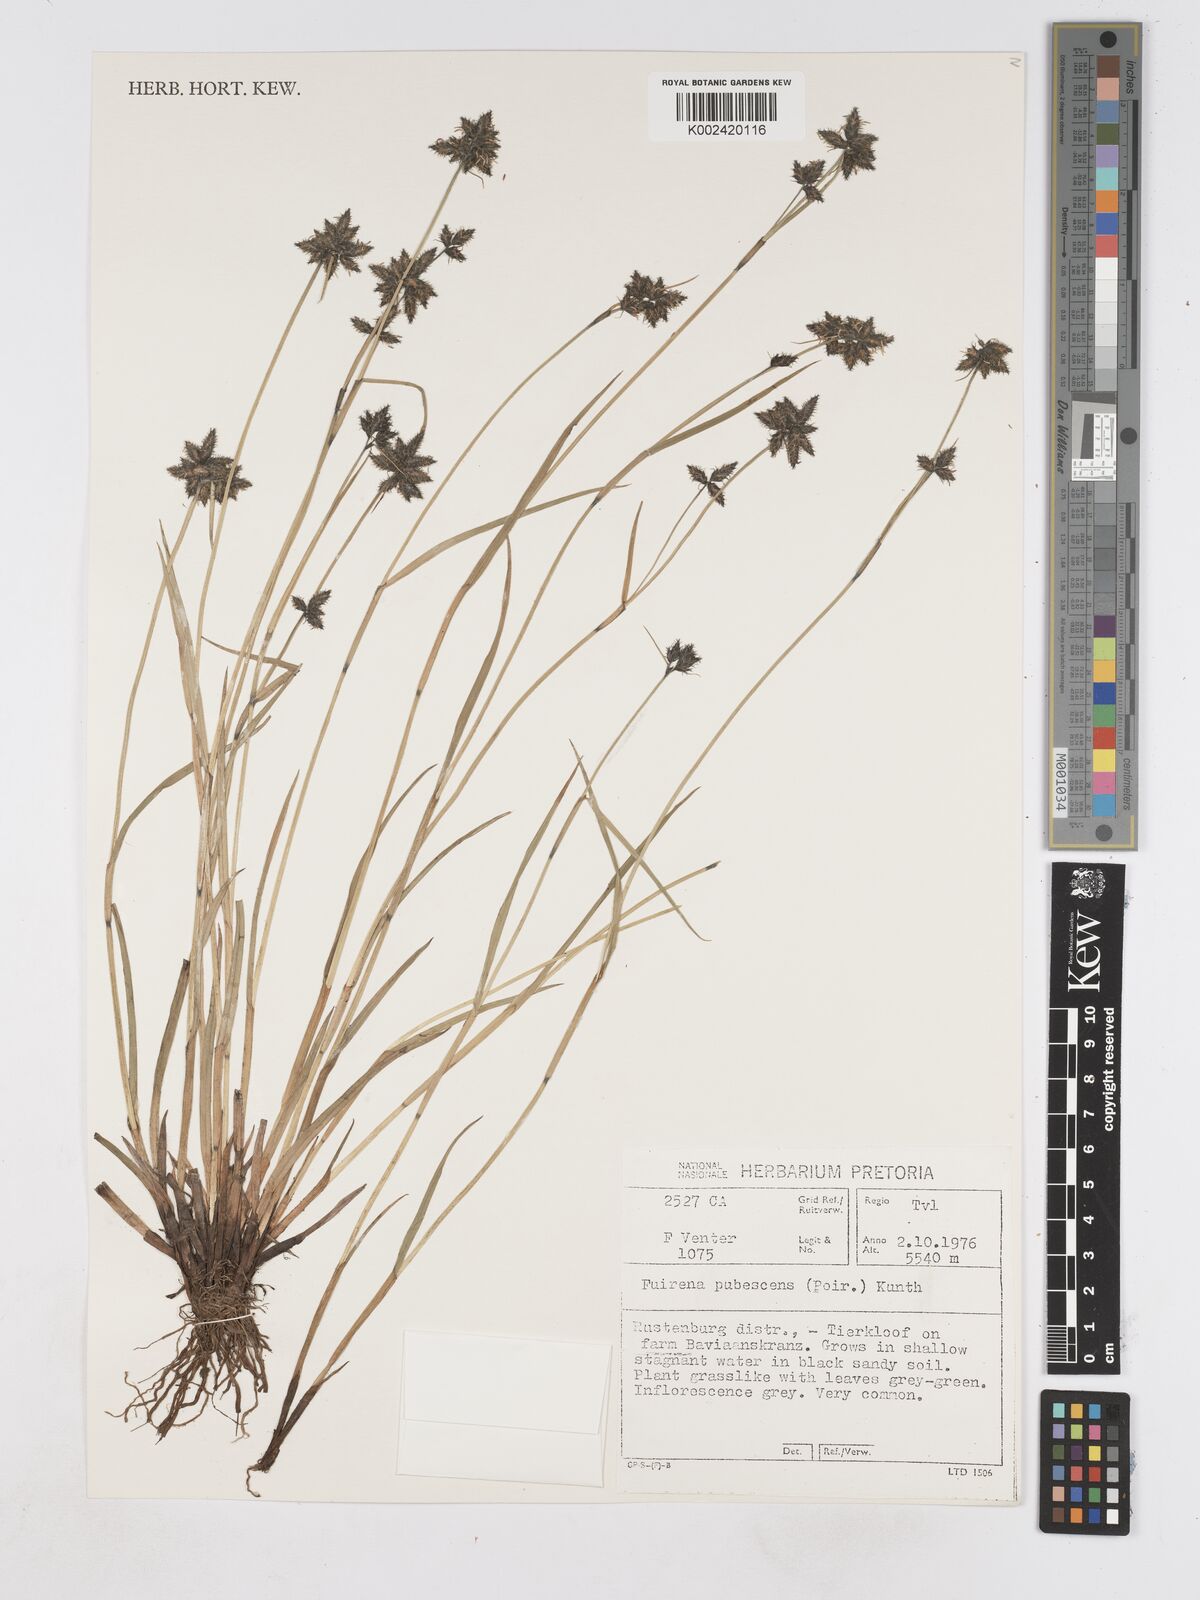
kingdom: Plantae
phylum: Tracheophyta
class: Liliopsida
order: Poales
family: Cyperaceae
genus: Fuirena
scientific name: Fuirena pubescens
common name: Hairy sedge
